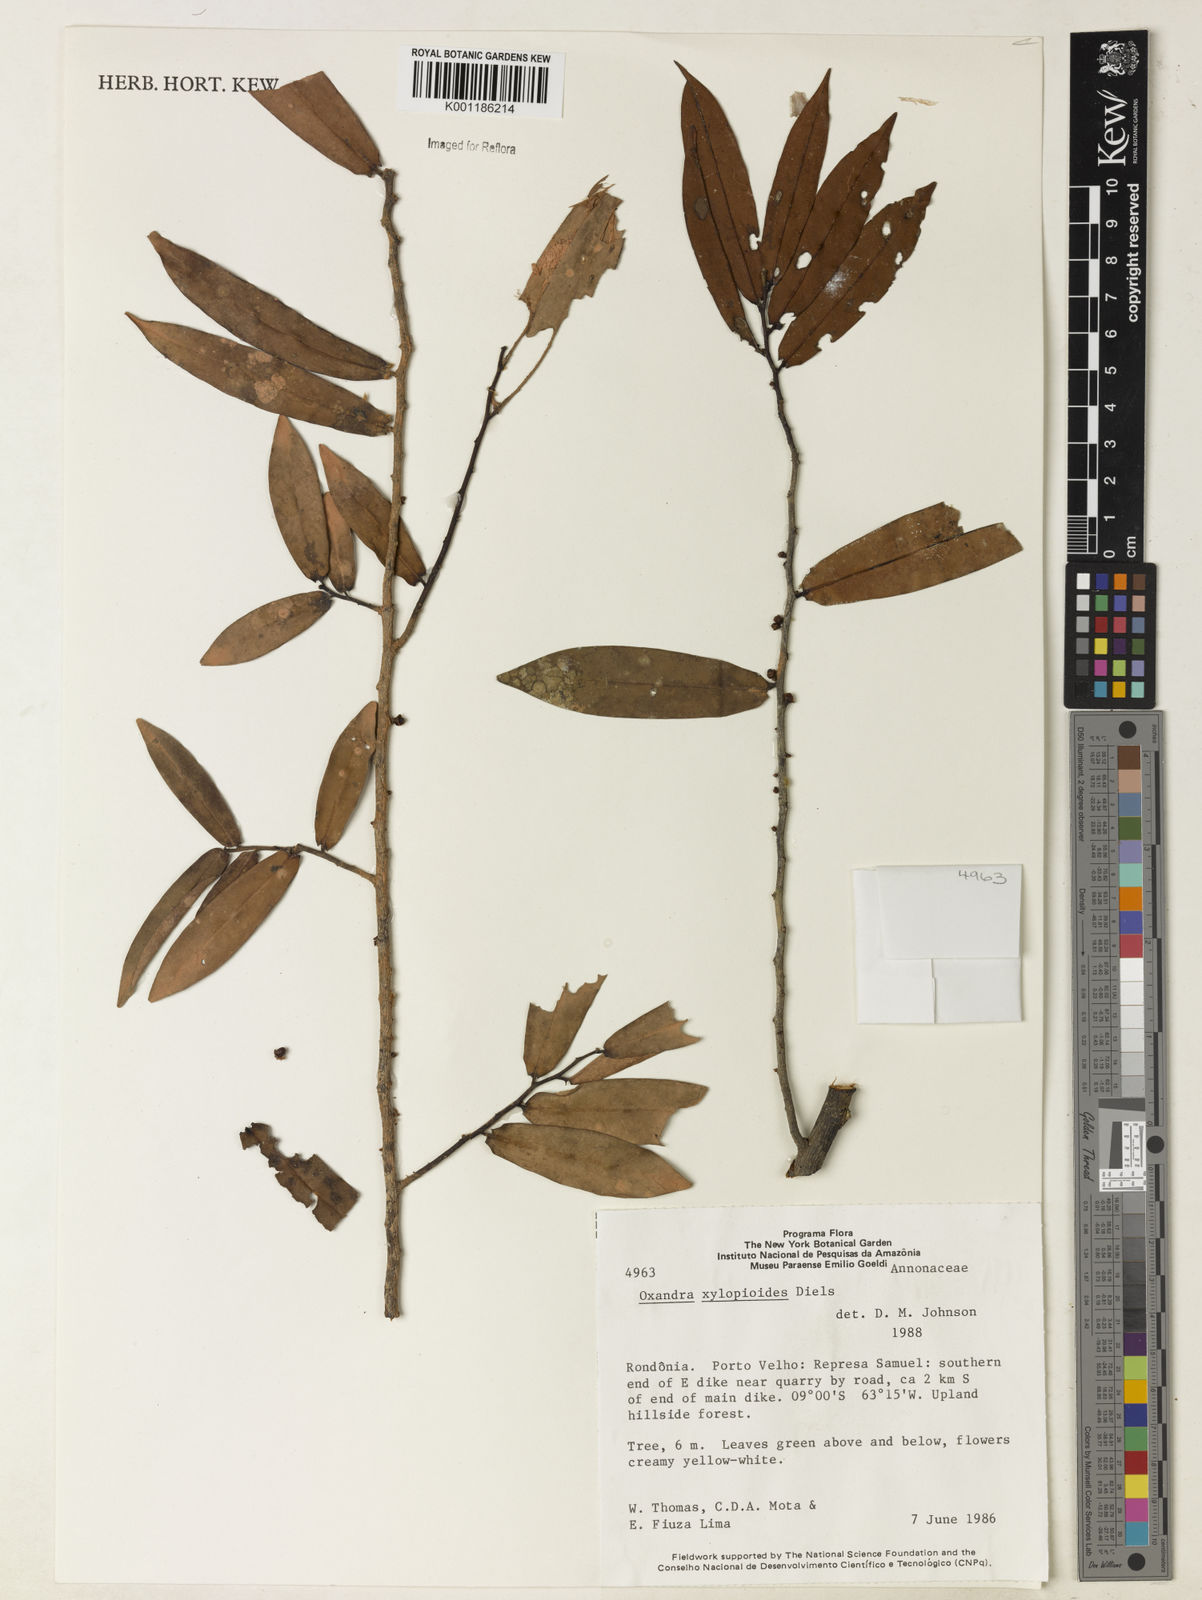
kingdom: Plantae
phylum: Tracheophyta
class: Magnoliopsida
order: Magnoliales
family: Annonaceae
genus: Oxandra
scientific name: Oxandra xylopioides
